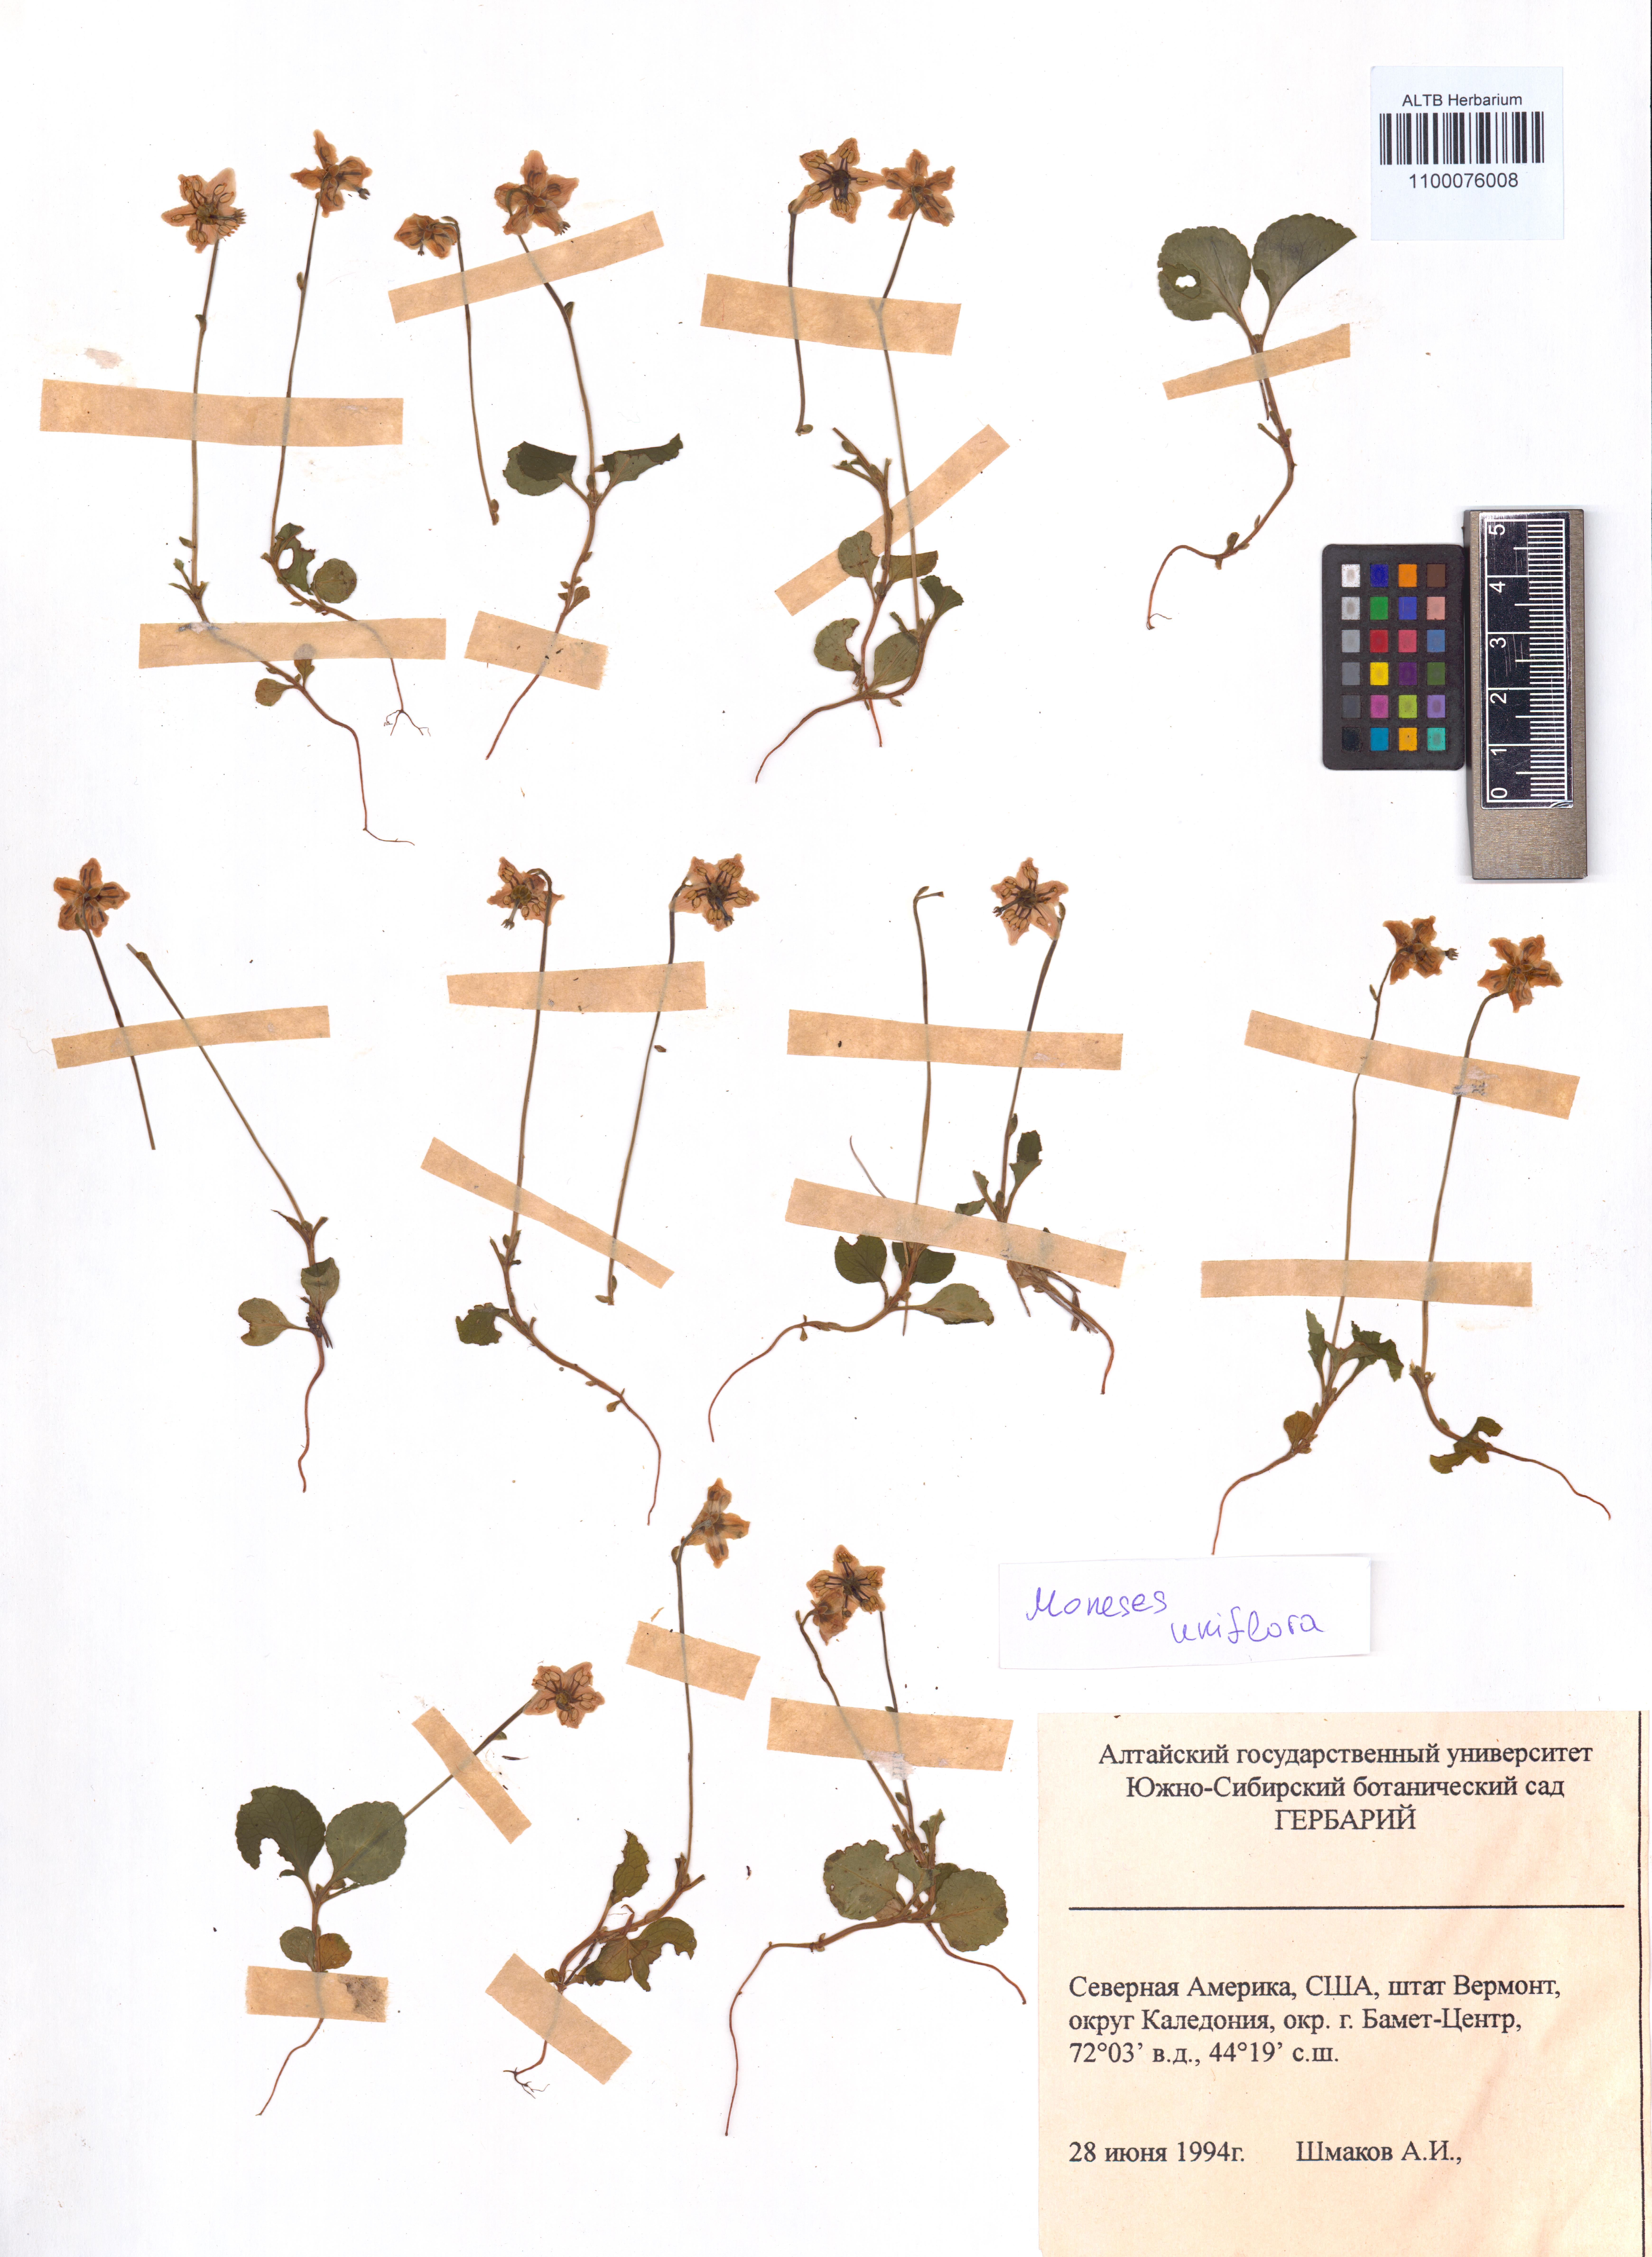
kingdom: Plantae
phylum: Tracheophyta
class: Magnoliopsida
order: Ericales
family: Ericaceae
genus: Moneses
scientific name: Moneses uniflora
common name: One-flowered wintergreen
